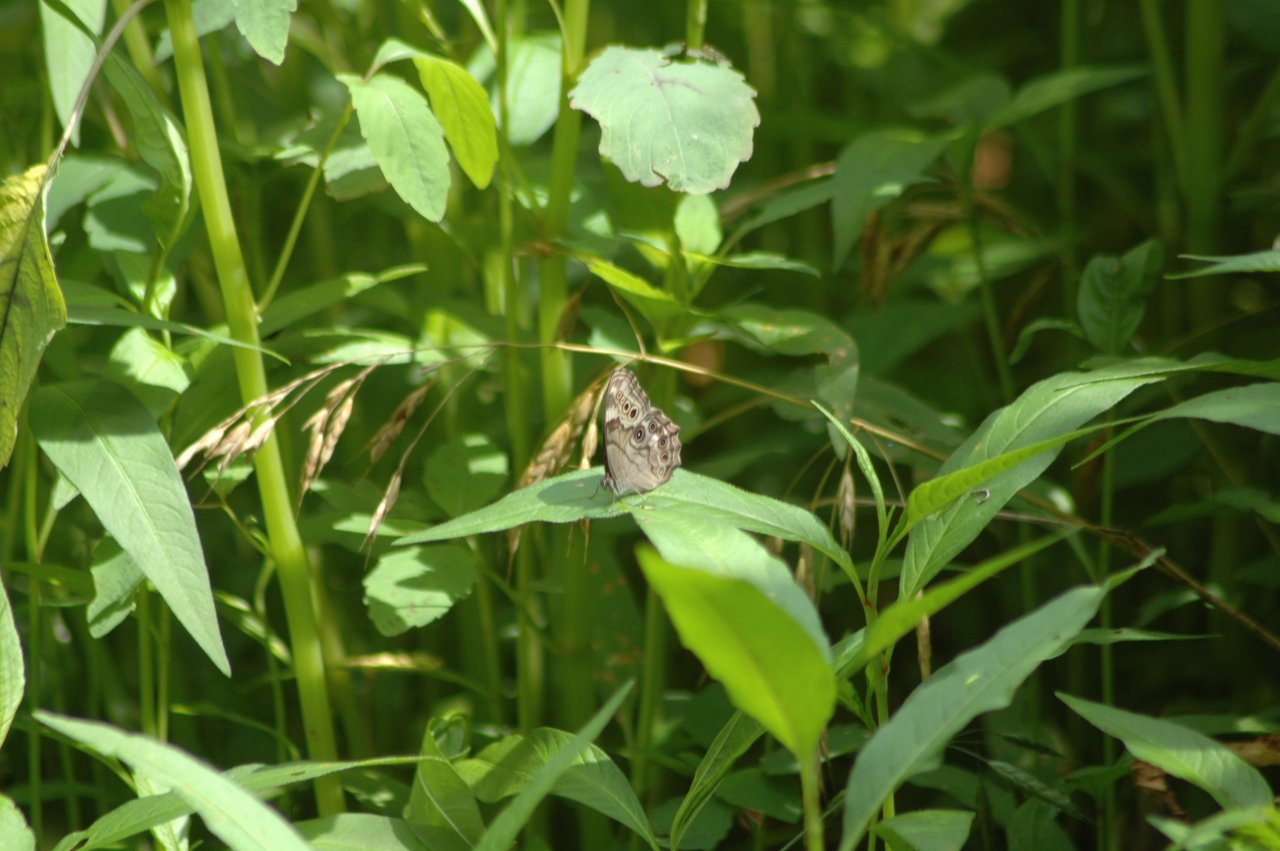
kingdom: Animalia
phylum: Arthropoda
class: Insecta
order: Lepidoptera
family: Nymphalidae
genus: Cercyonis
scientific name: Cercyonis pegala
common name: Common Wood-Nymph
